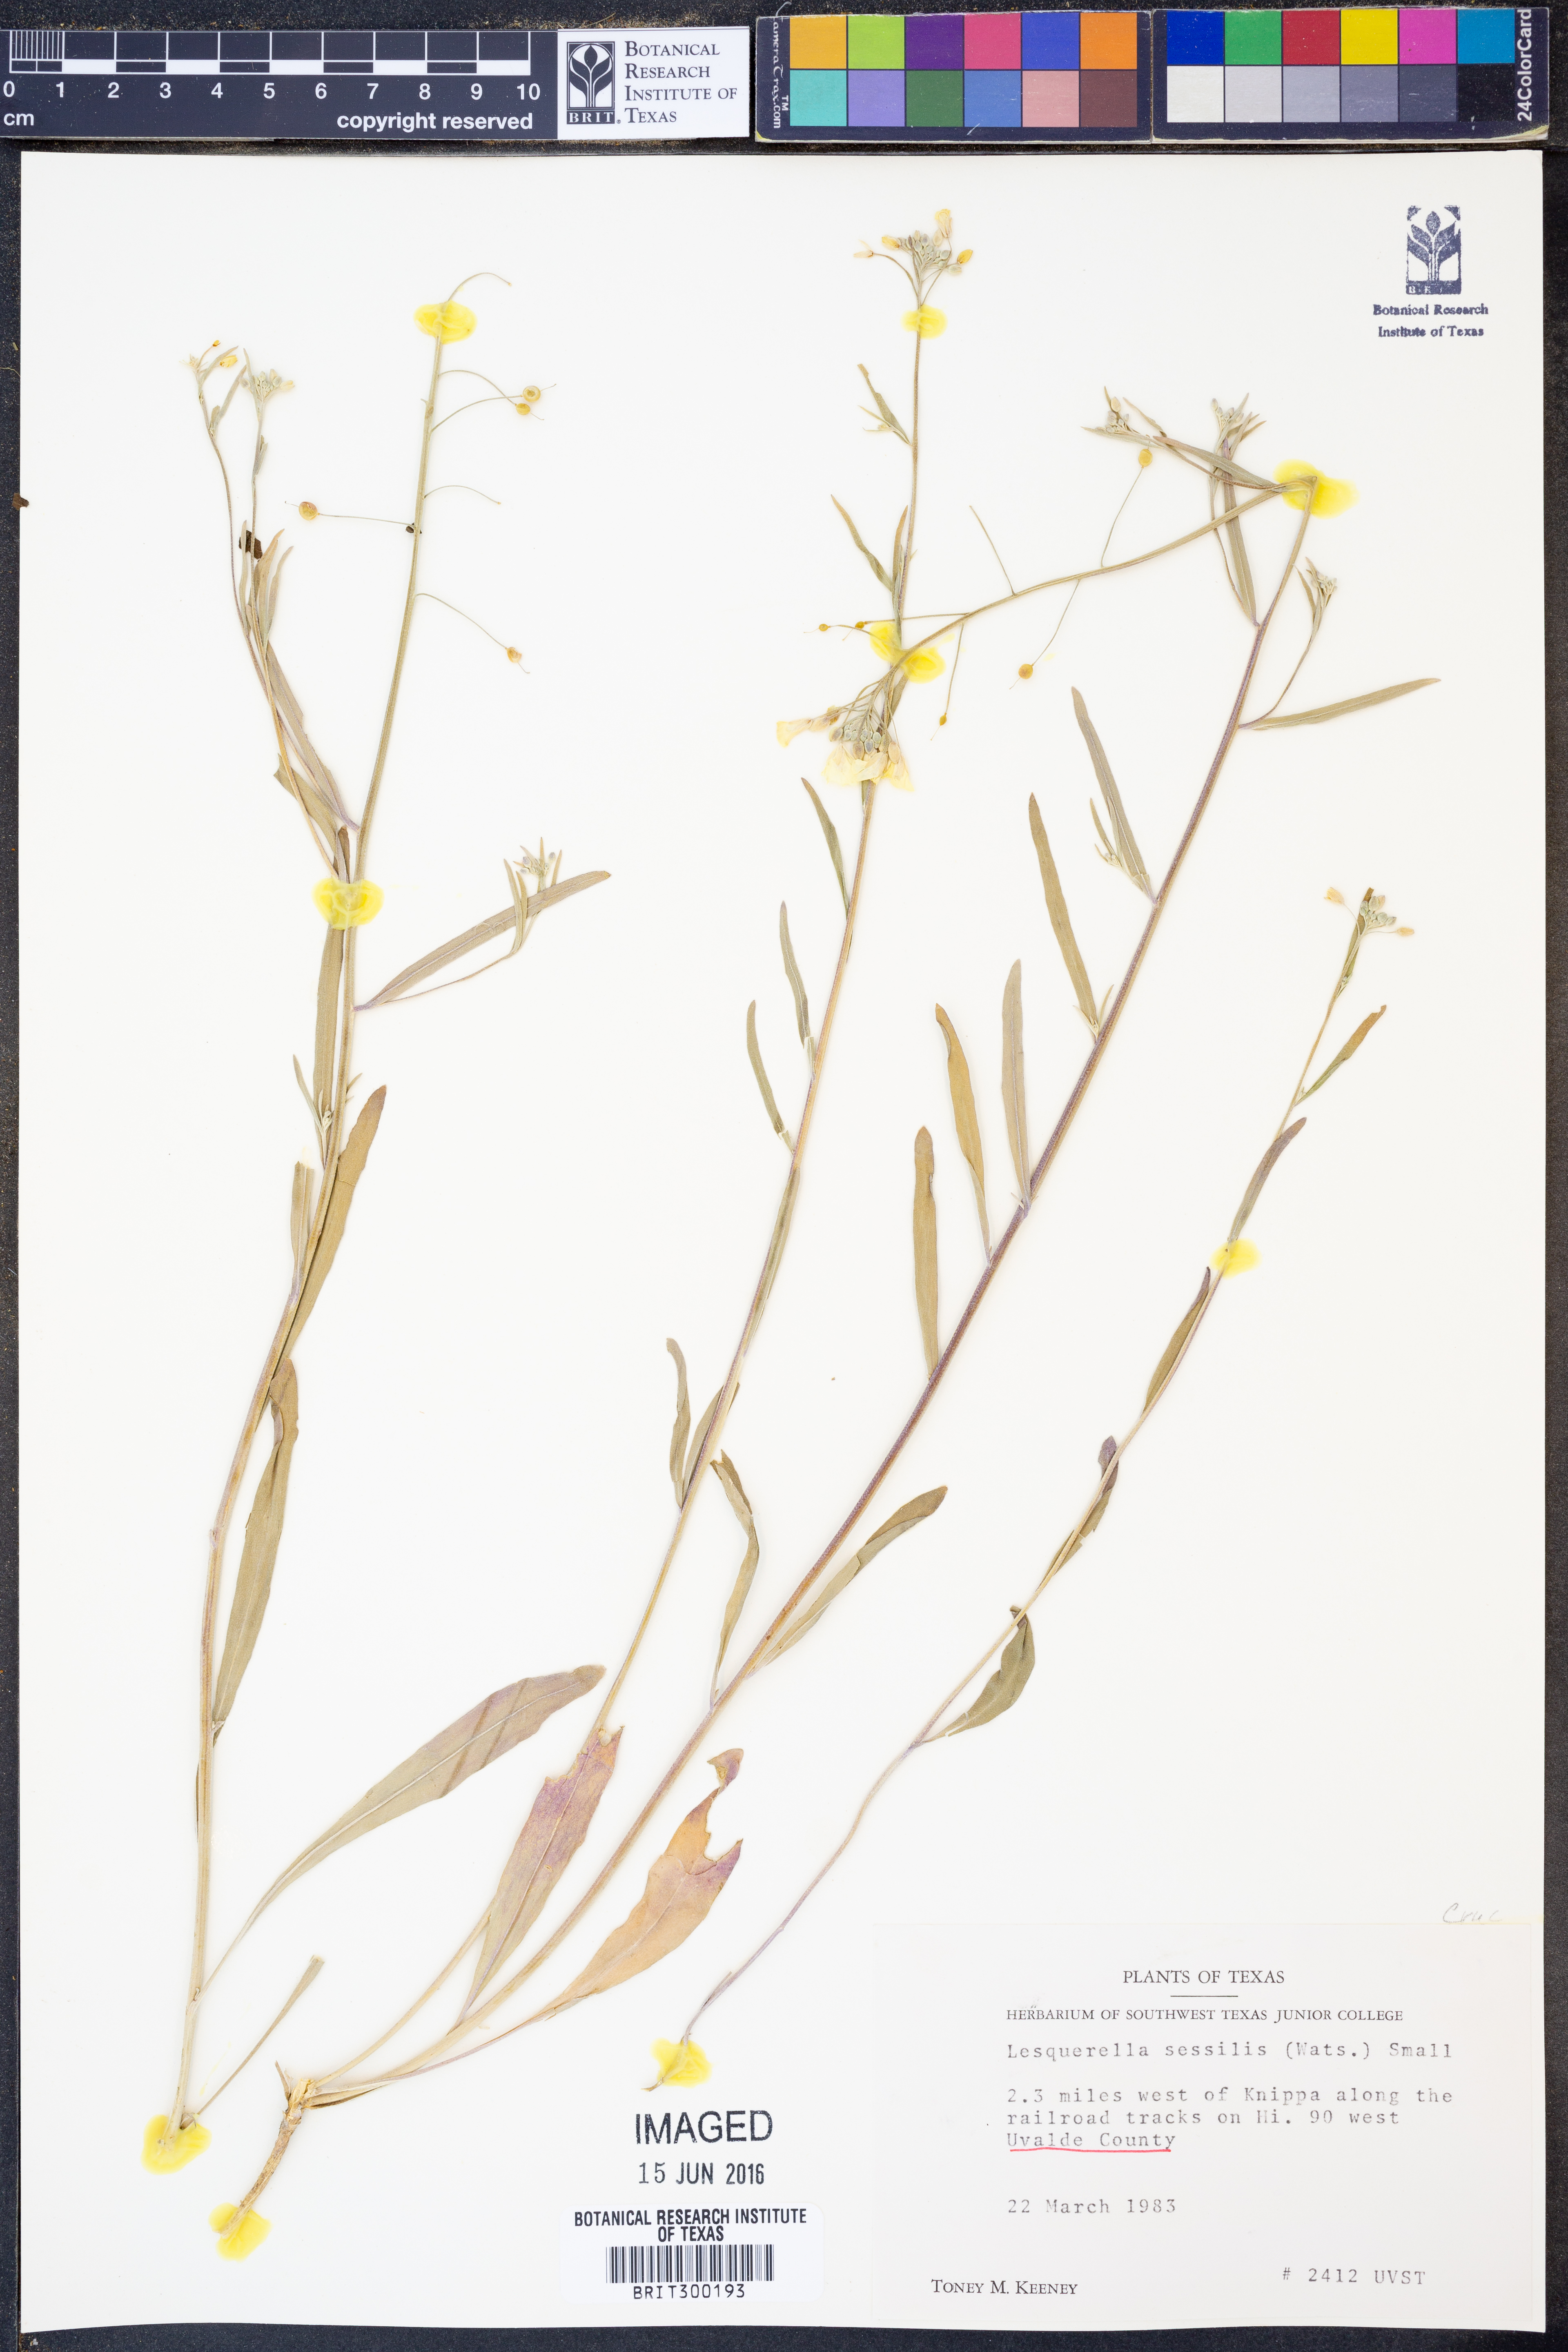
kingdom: Plantae
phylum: Tracheophyta
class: Magnoliopsida
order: Brassicales
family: Brassicaceae
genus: Physaria
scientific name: Physaria sessilis
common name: Sessile bladderpod
